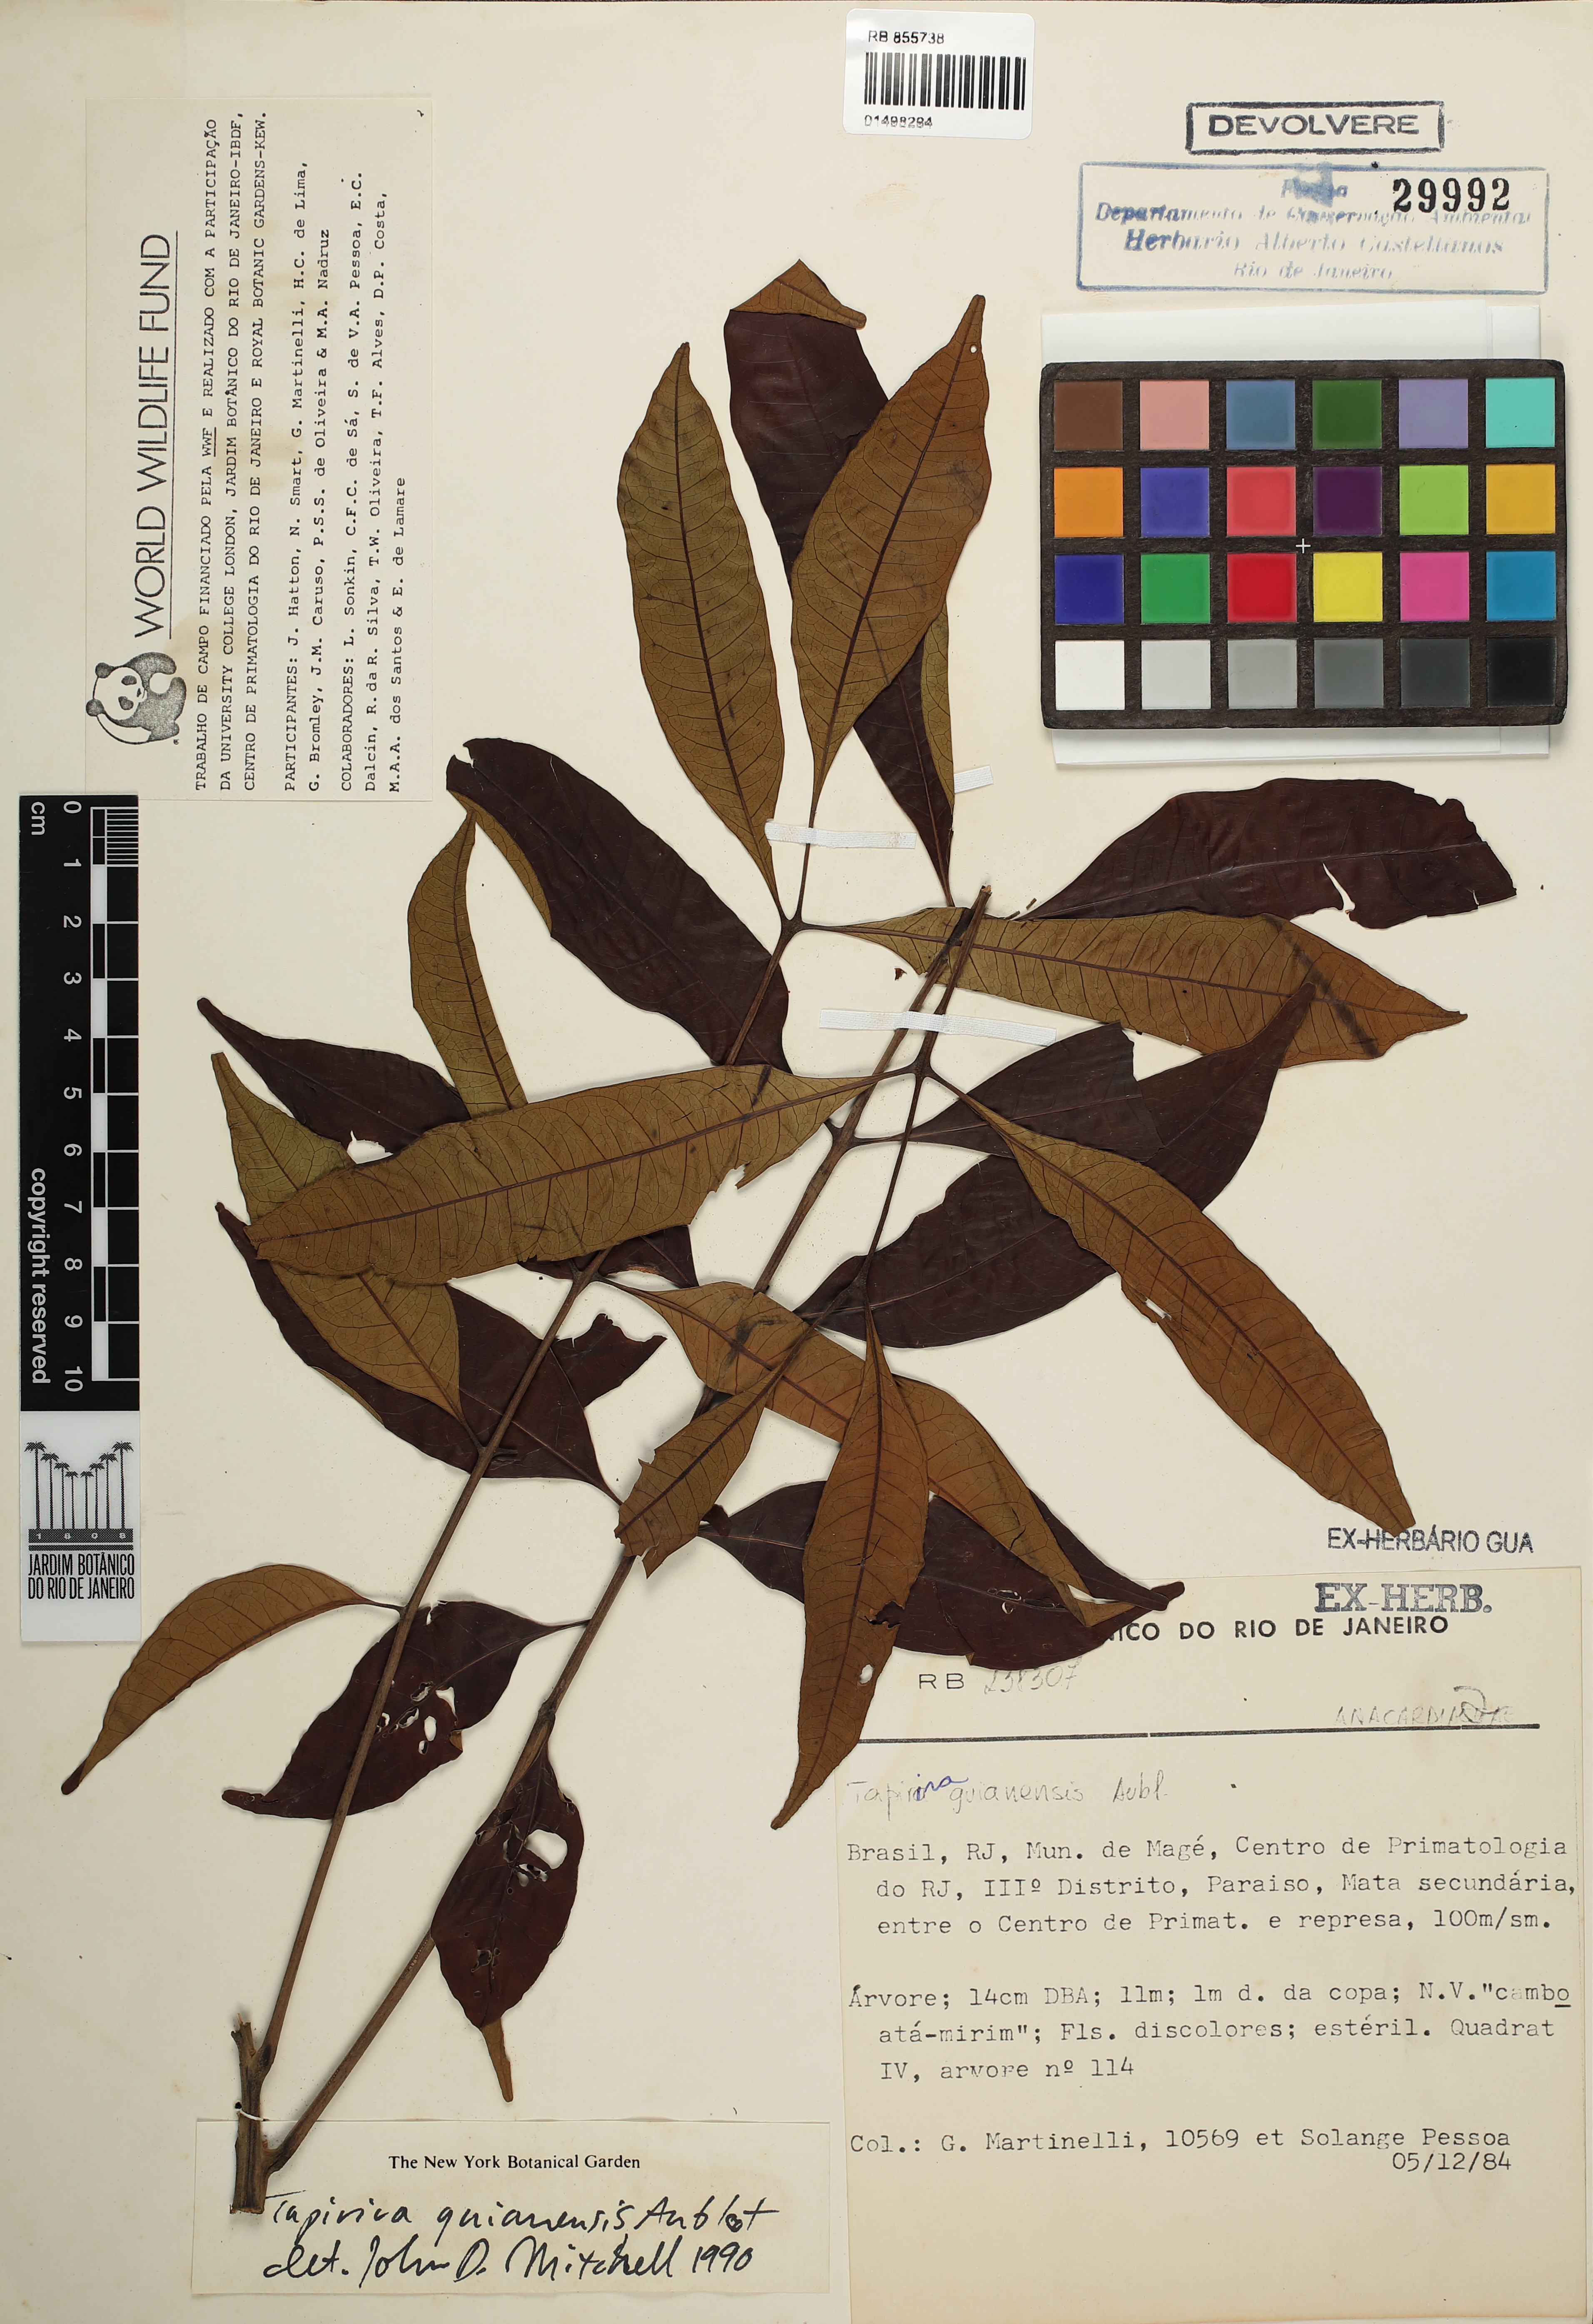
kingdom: Plantae
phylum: Tracheophyta
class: Magnoliopsida
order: Sapindales
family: Anacardiaceae
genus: Tapirira
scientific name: Tapirira guianensis
